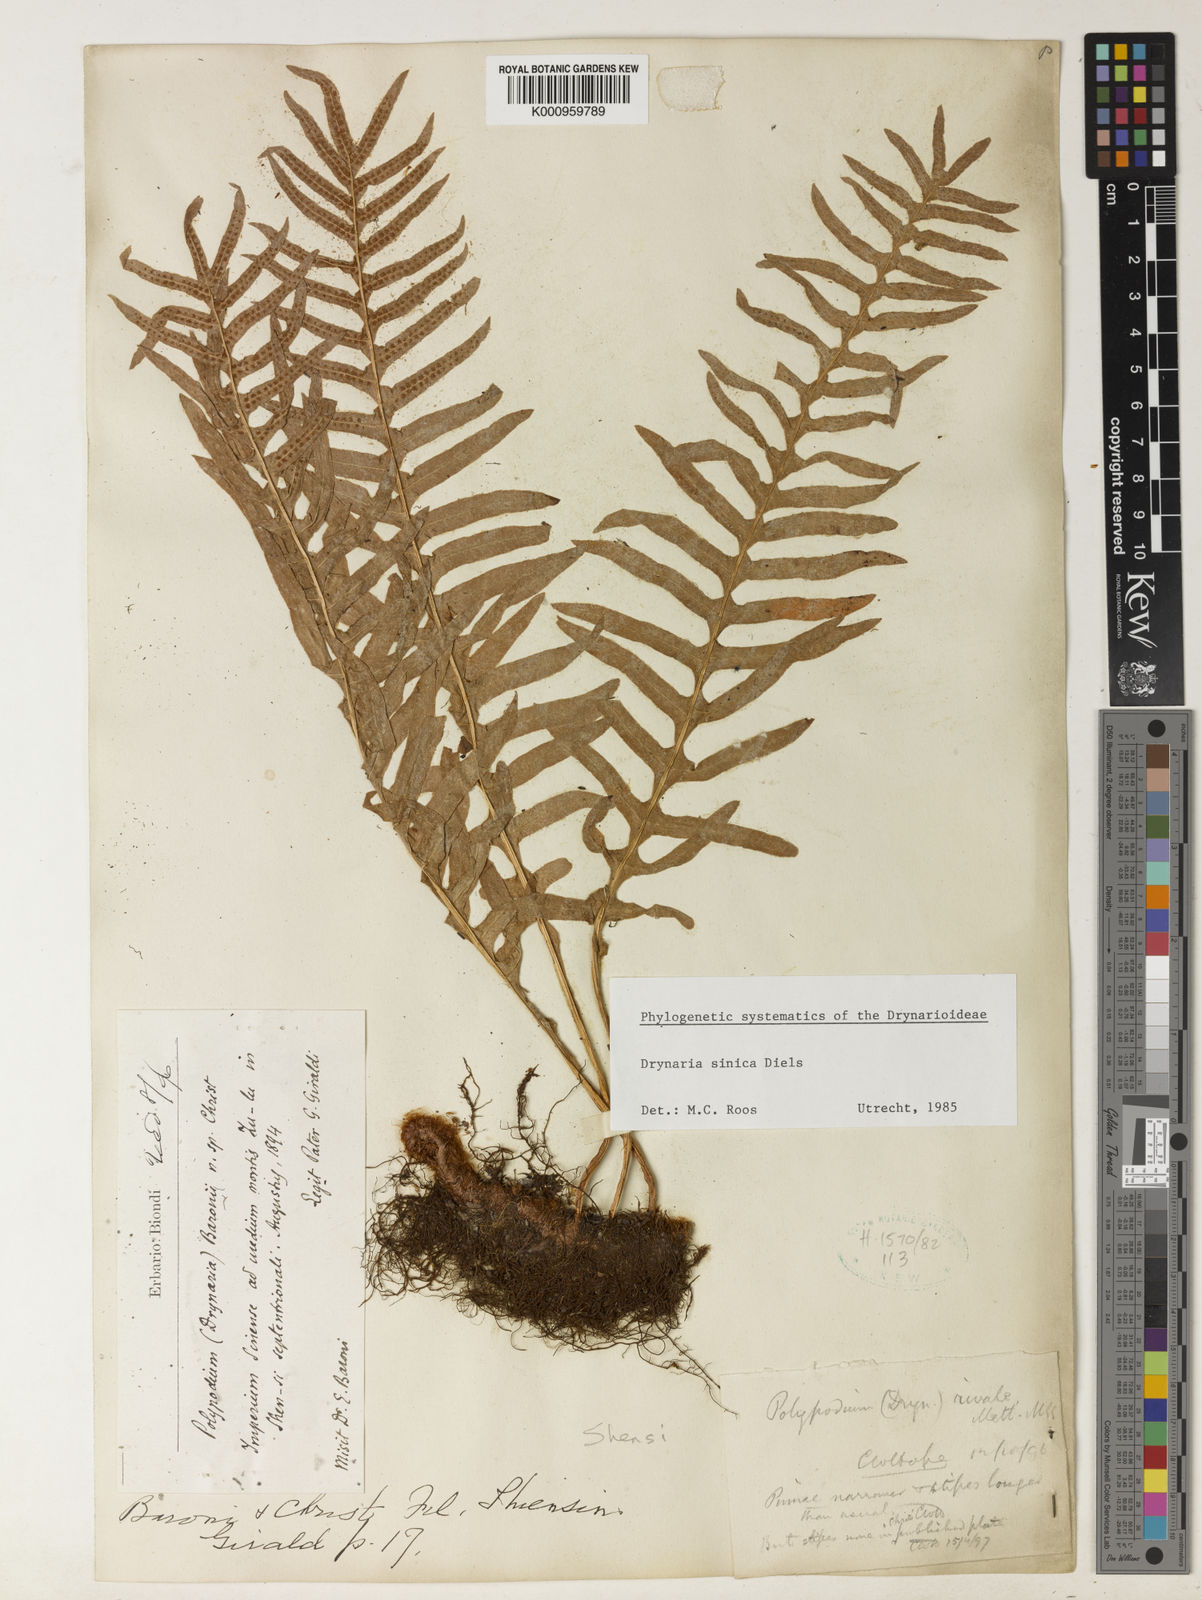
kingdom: Plantae
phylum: Tracheophyta
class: Polypodiopsida
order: Polypodiales
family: Polypodiaceae
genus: Drynaria
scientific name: Drynaria mollis
